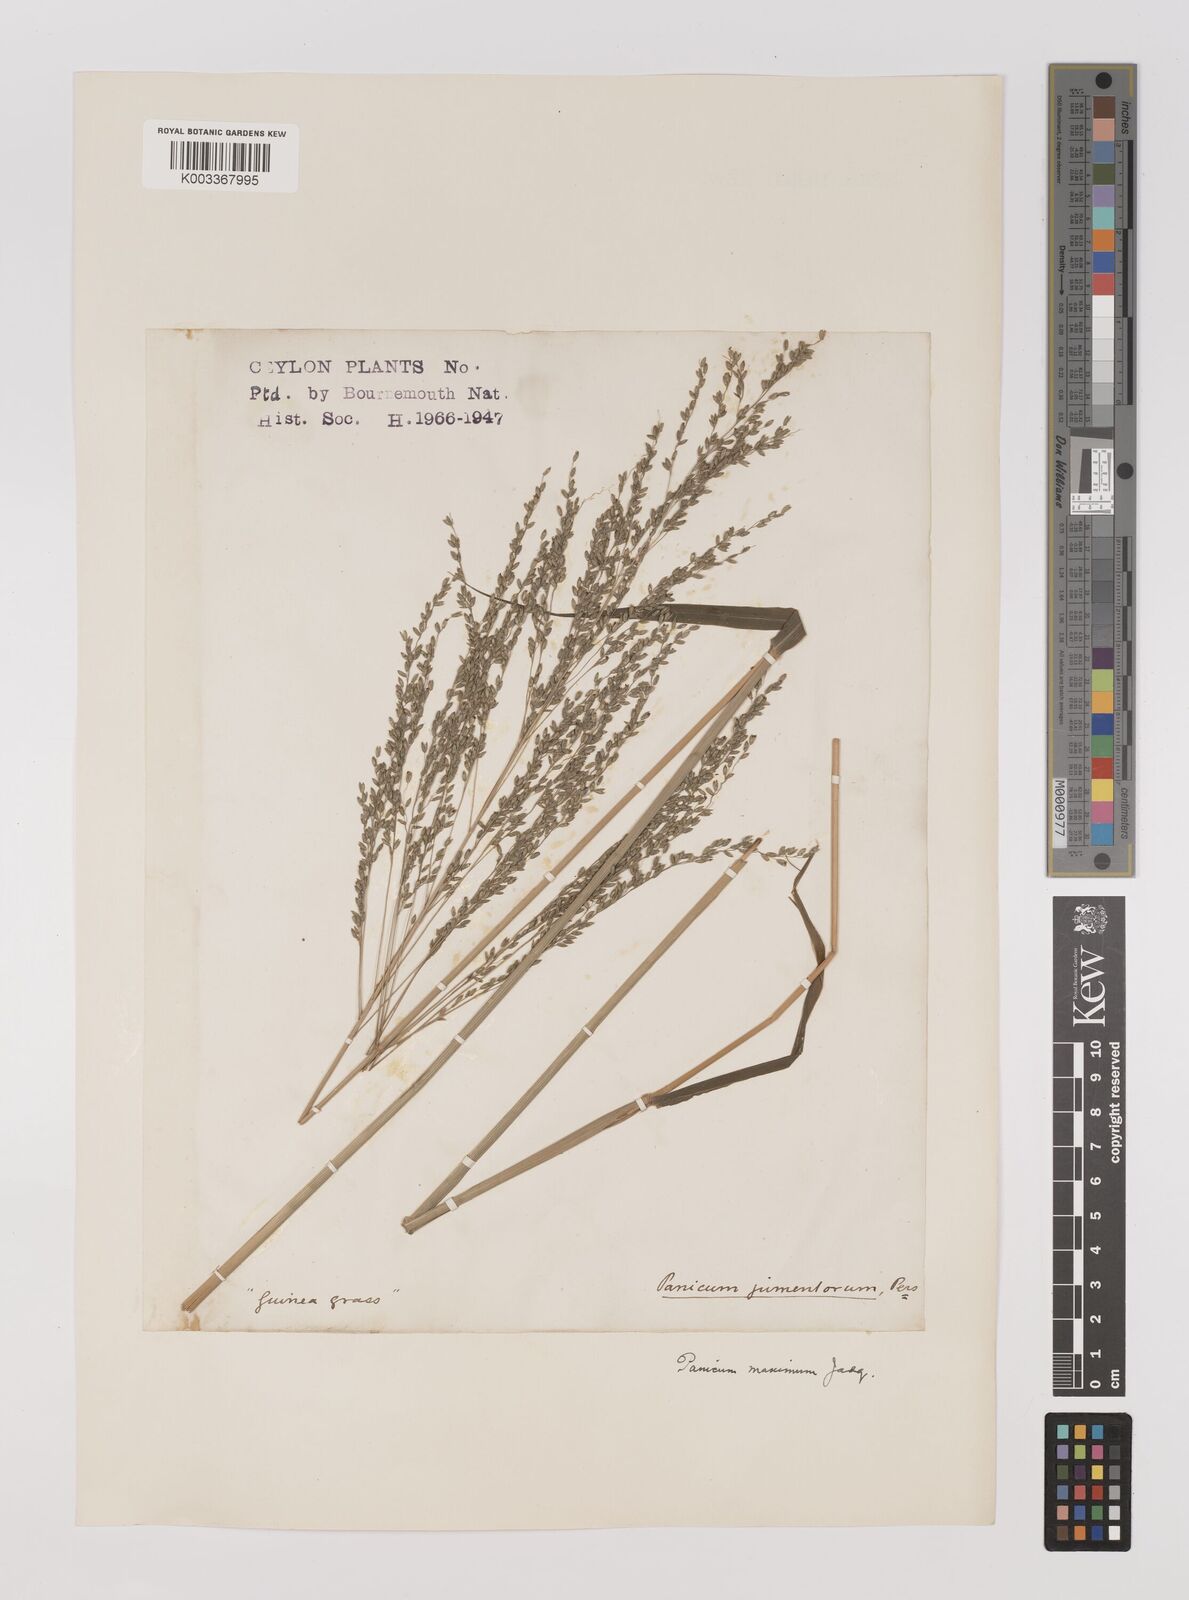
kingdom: Plantae
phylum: Tracheophyta
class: Liliopsida
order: Poales
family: Poaceae
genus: Megathyrsus
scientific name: Megathyrsus maximus
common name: Guineagrass
